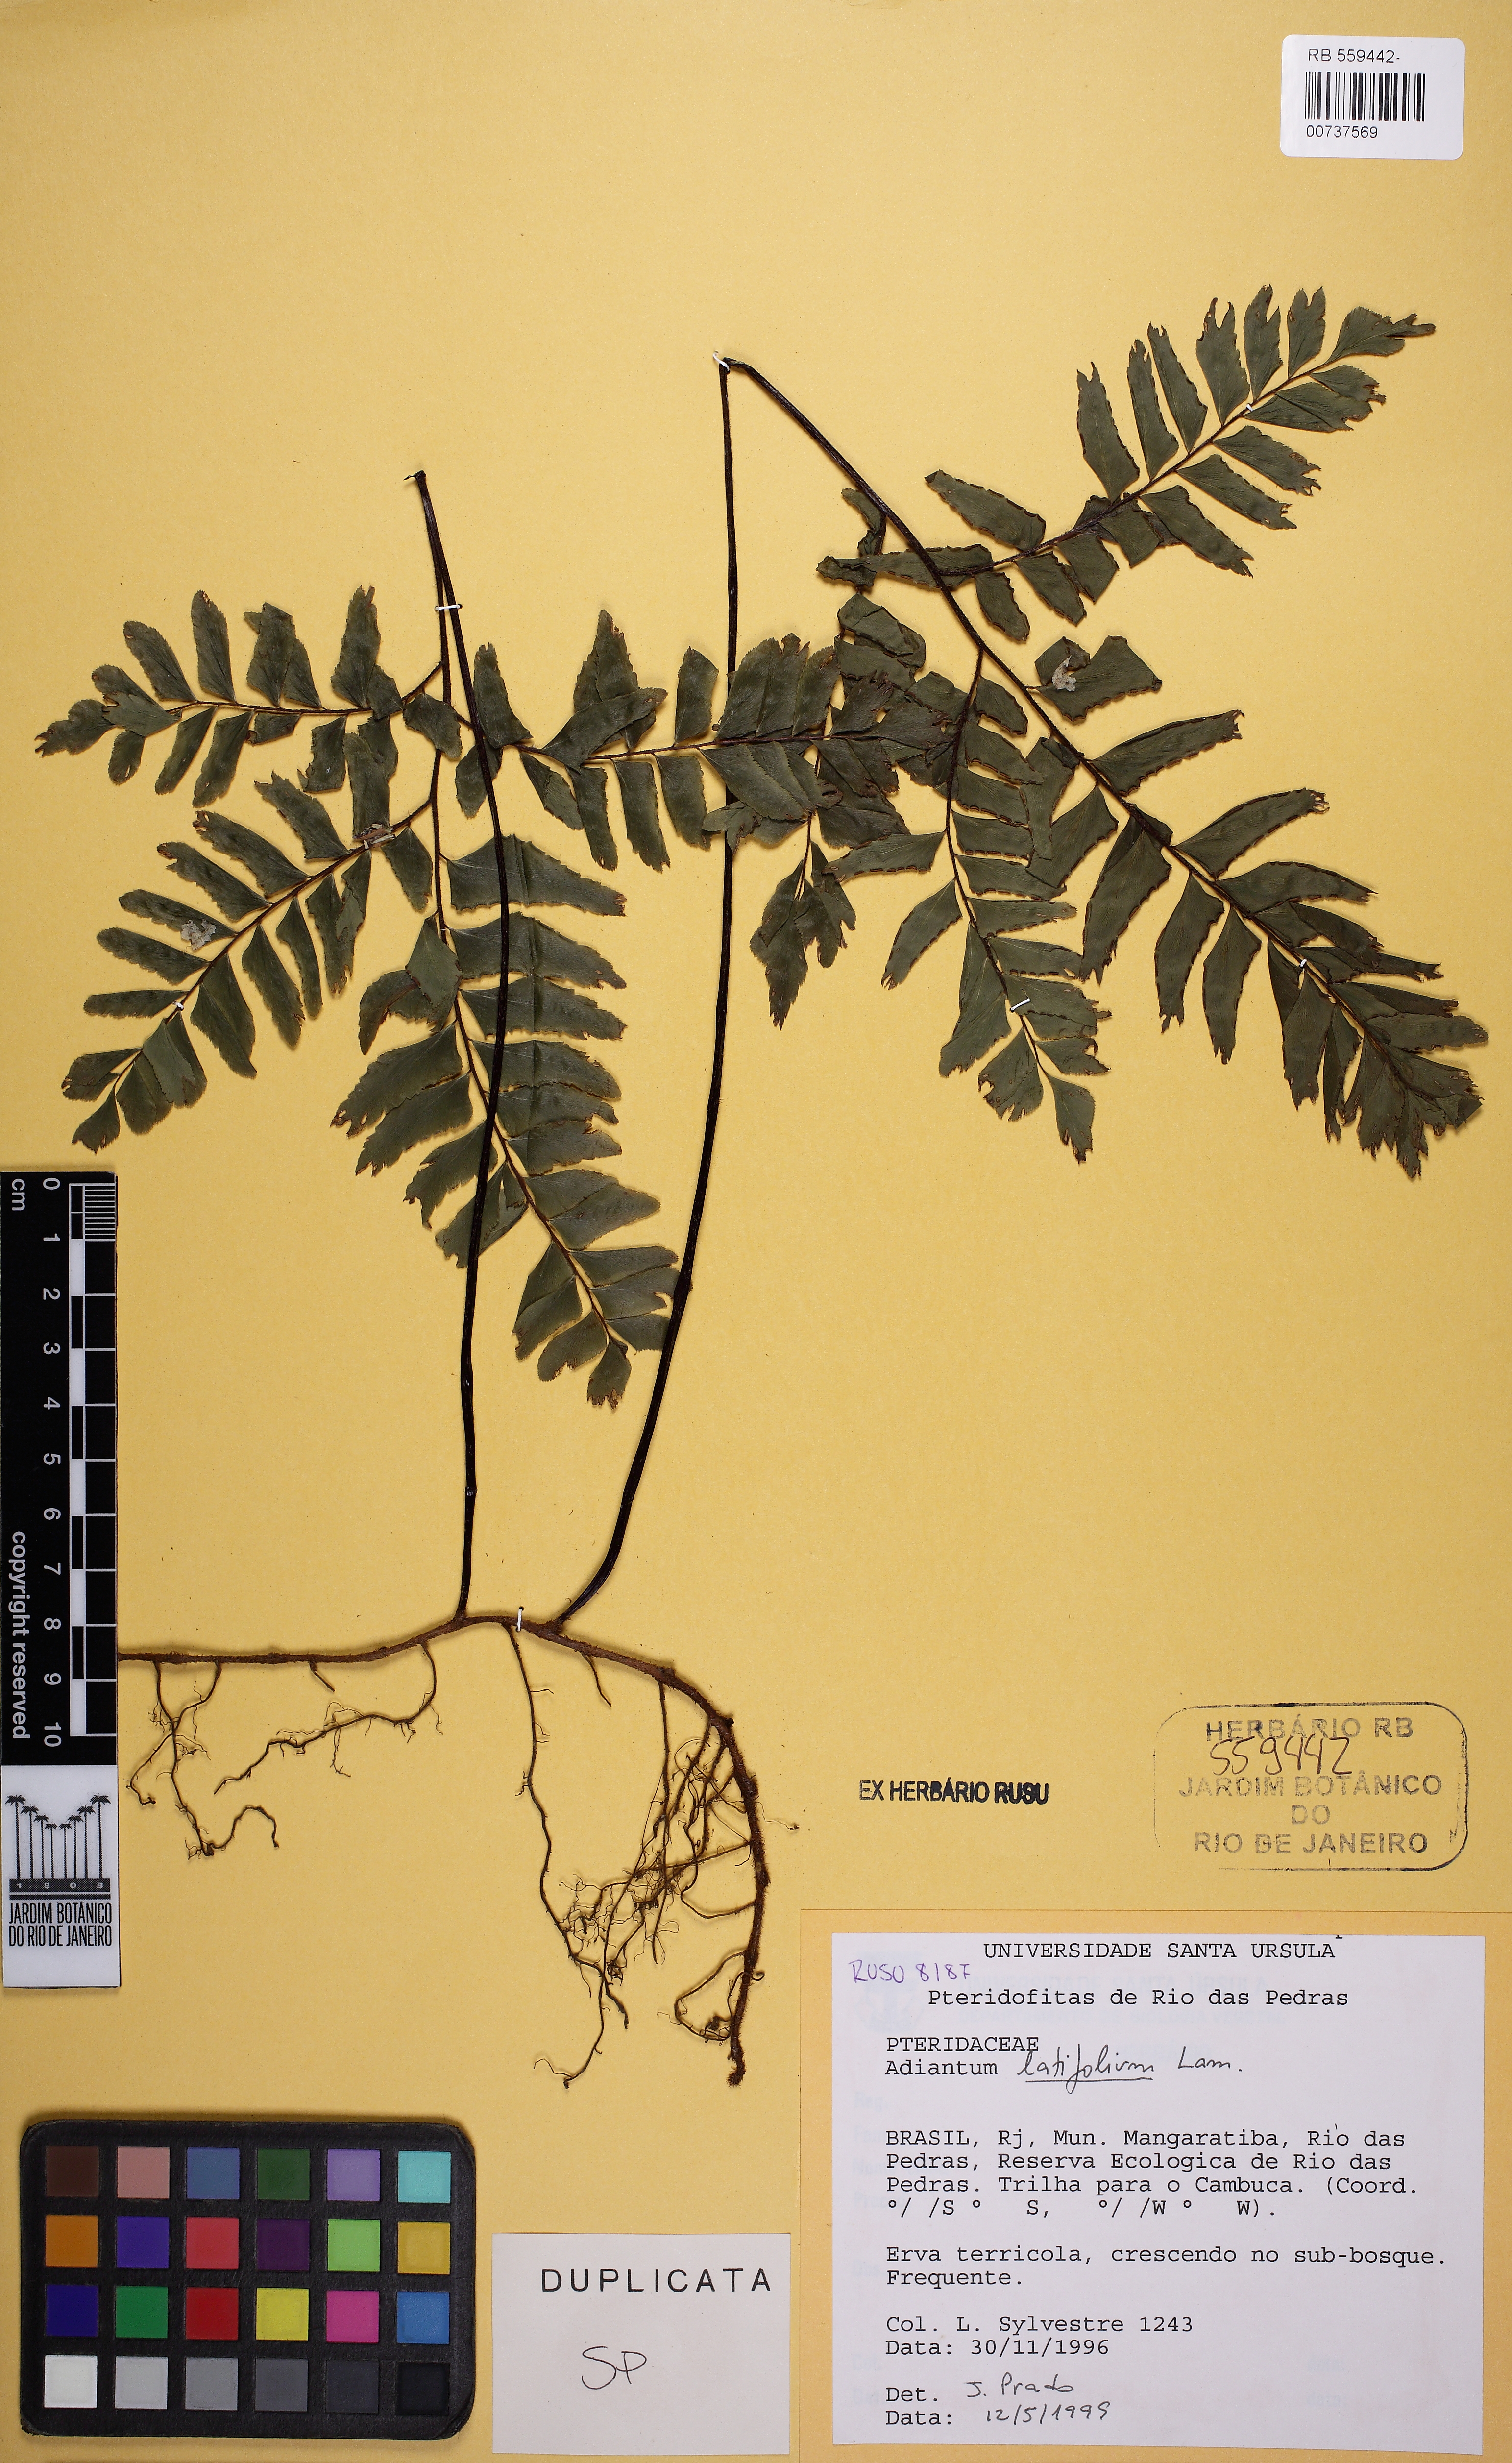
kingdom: Plantae
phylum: Tracheophyta
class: Polypodiopsida
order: Polypodiales
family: Pteridaceae
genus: Adiantum
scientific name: Adiantum latifolium
